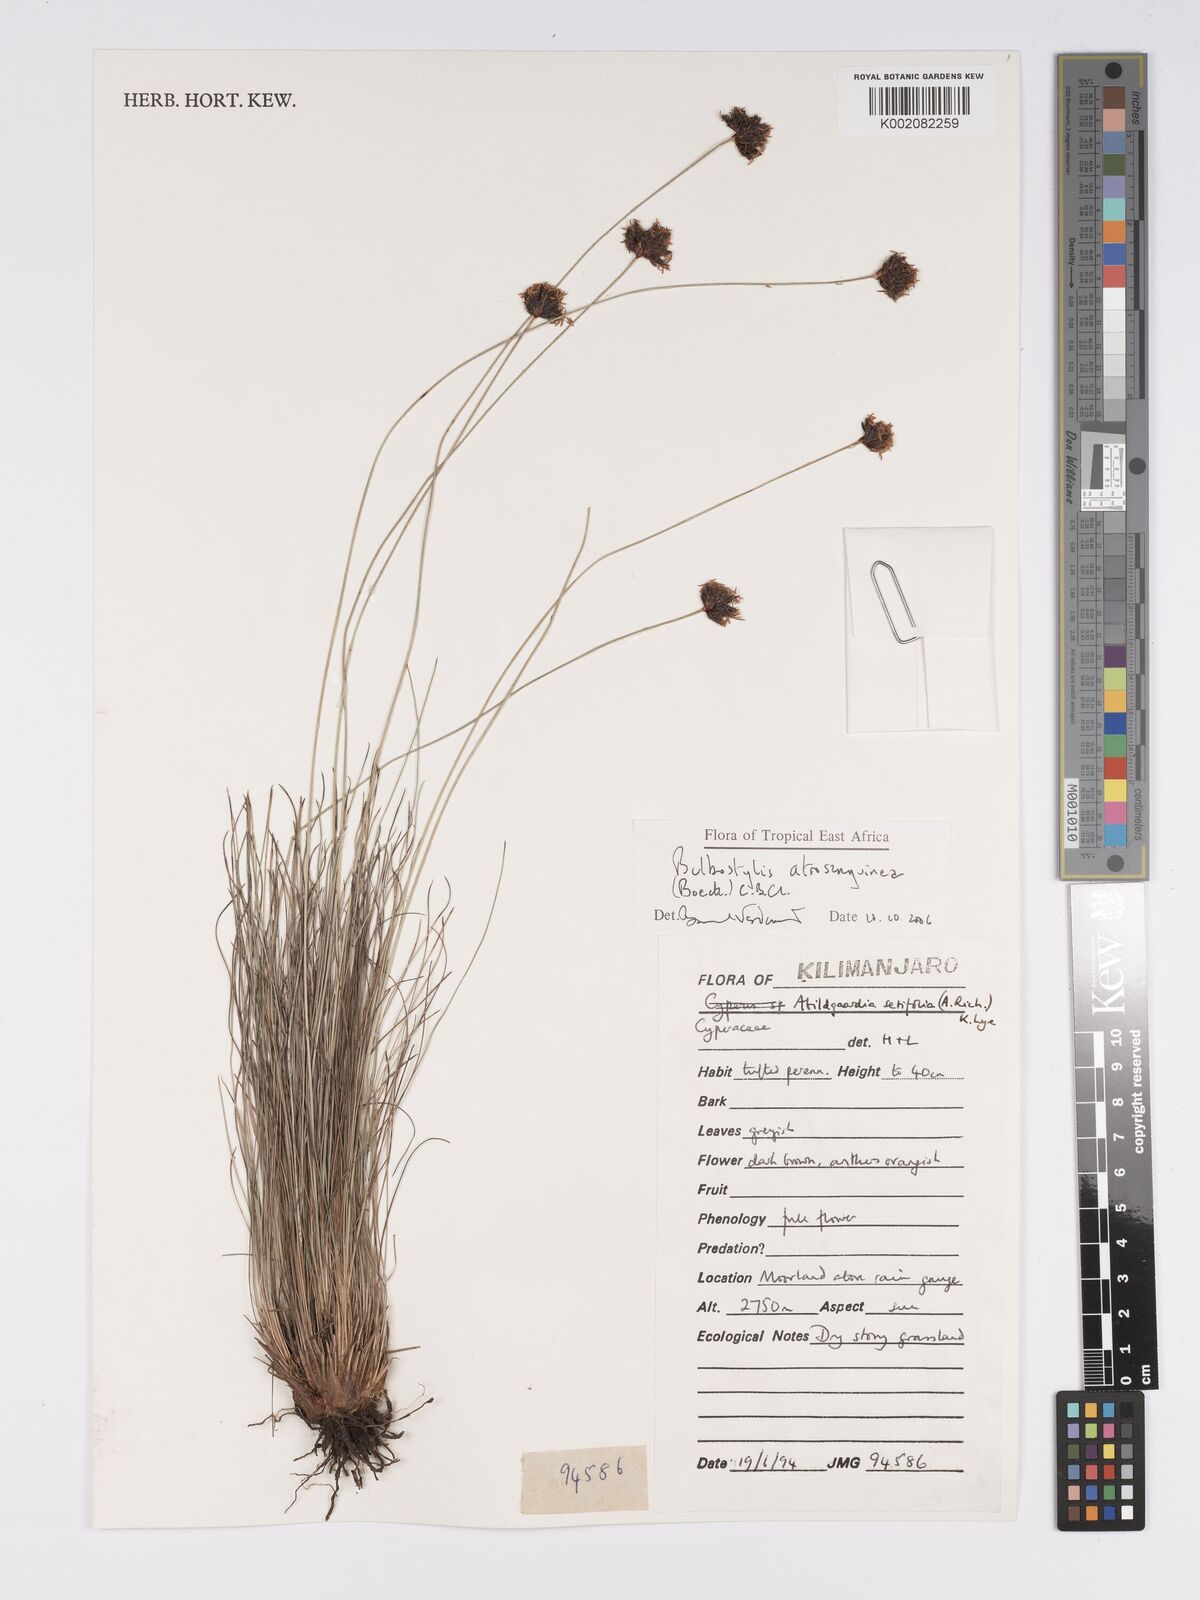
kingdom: Plantae
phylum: Tracheophyta
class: Liliopsida
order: Poales
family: Cyperaceae
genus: Bulbostylis
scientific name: Bulbostylis atrosanguinea
